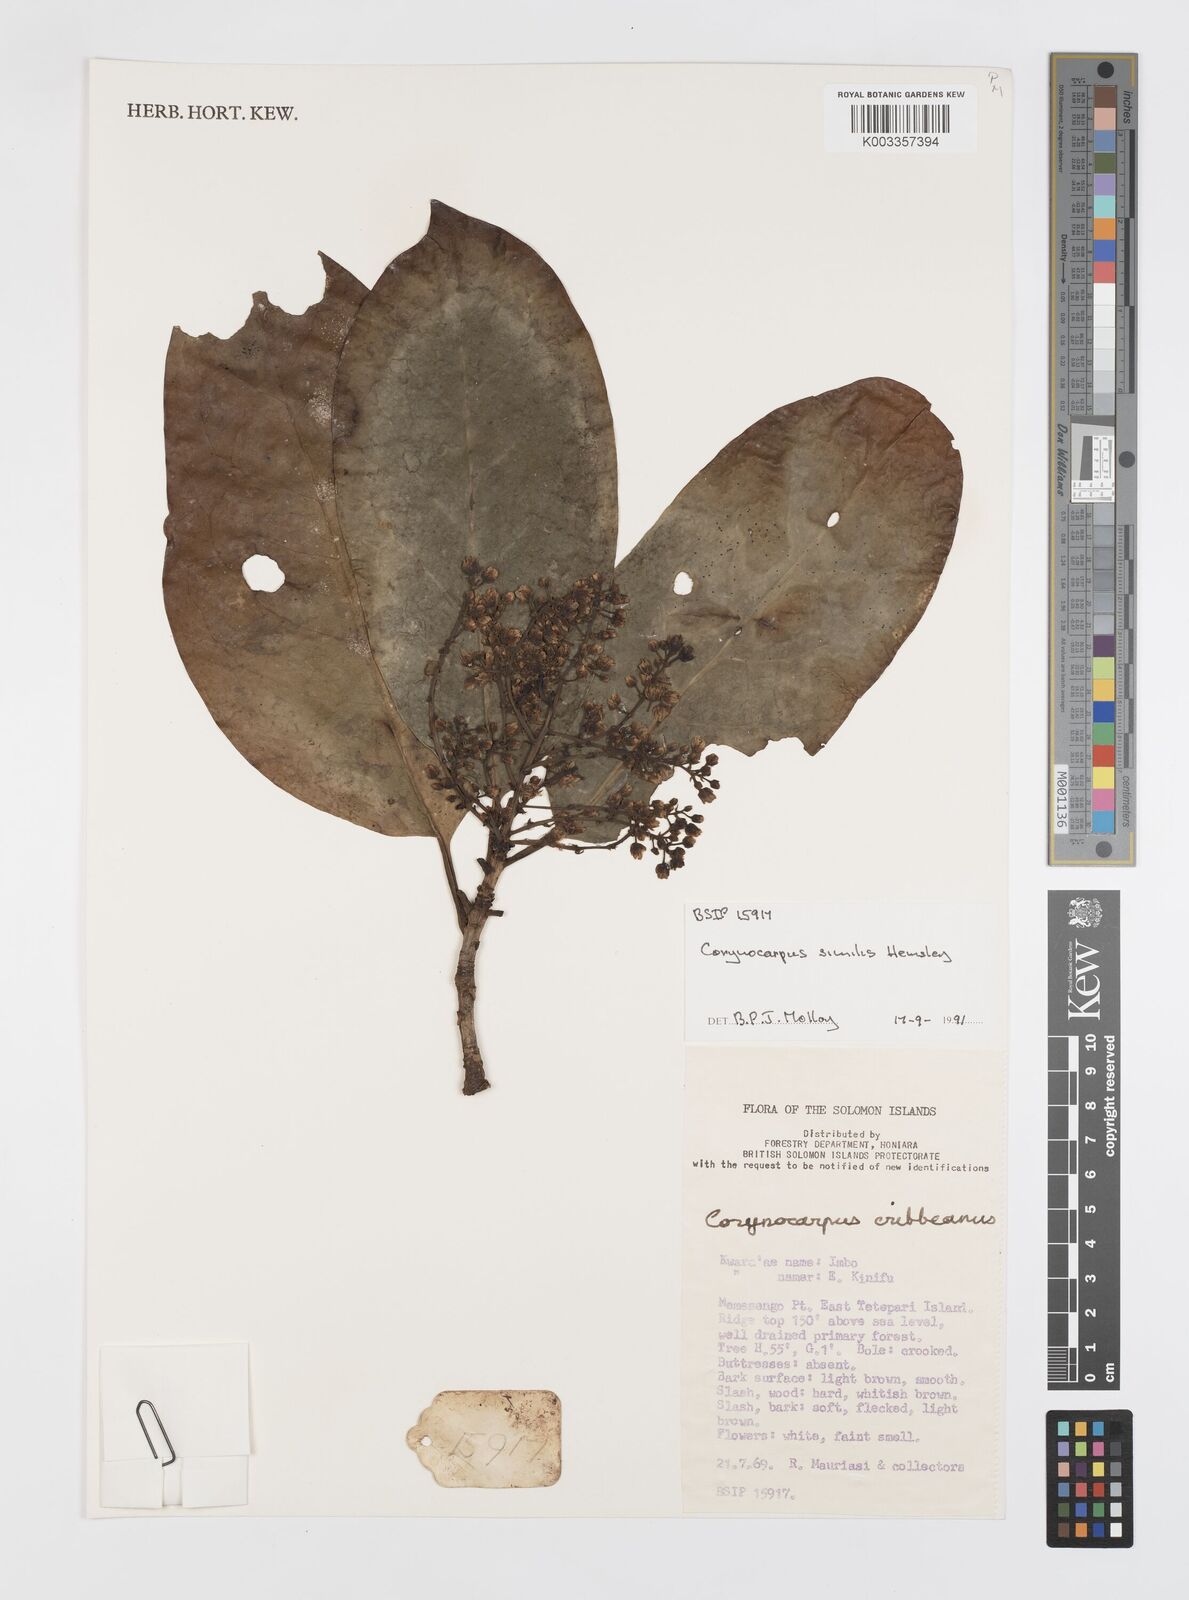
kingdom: Plantae
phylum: Tracheophyta
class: Magnoliopsida
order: Cucurbitales
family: Corynocarpaceae
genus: Corynocarpus
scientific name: Corynocarpus similis
